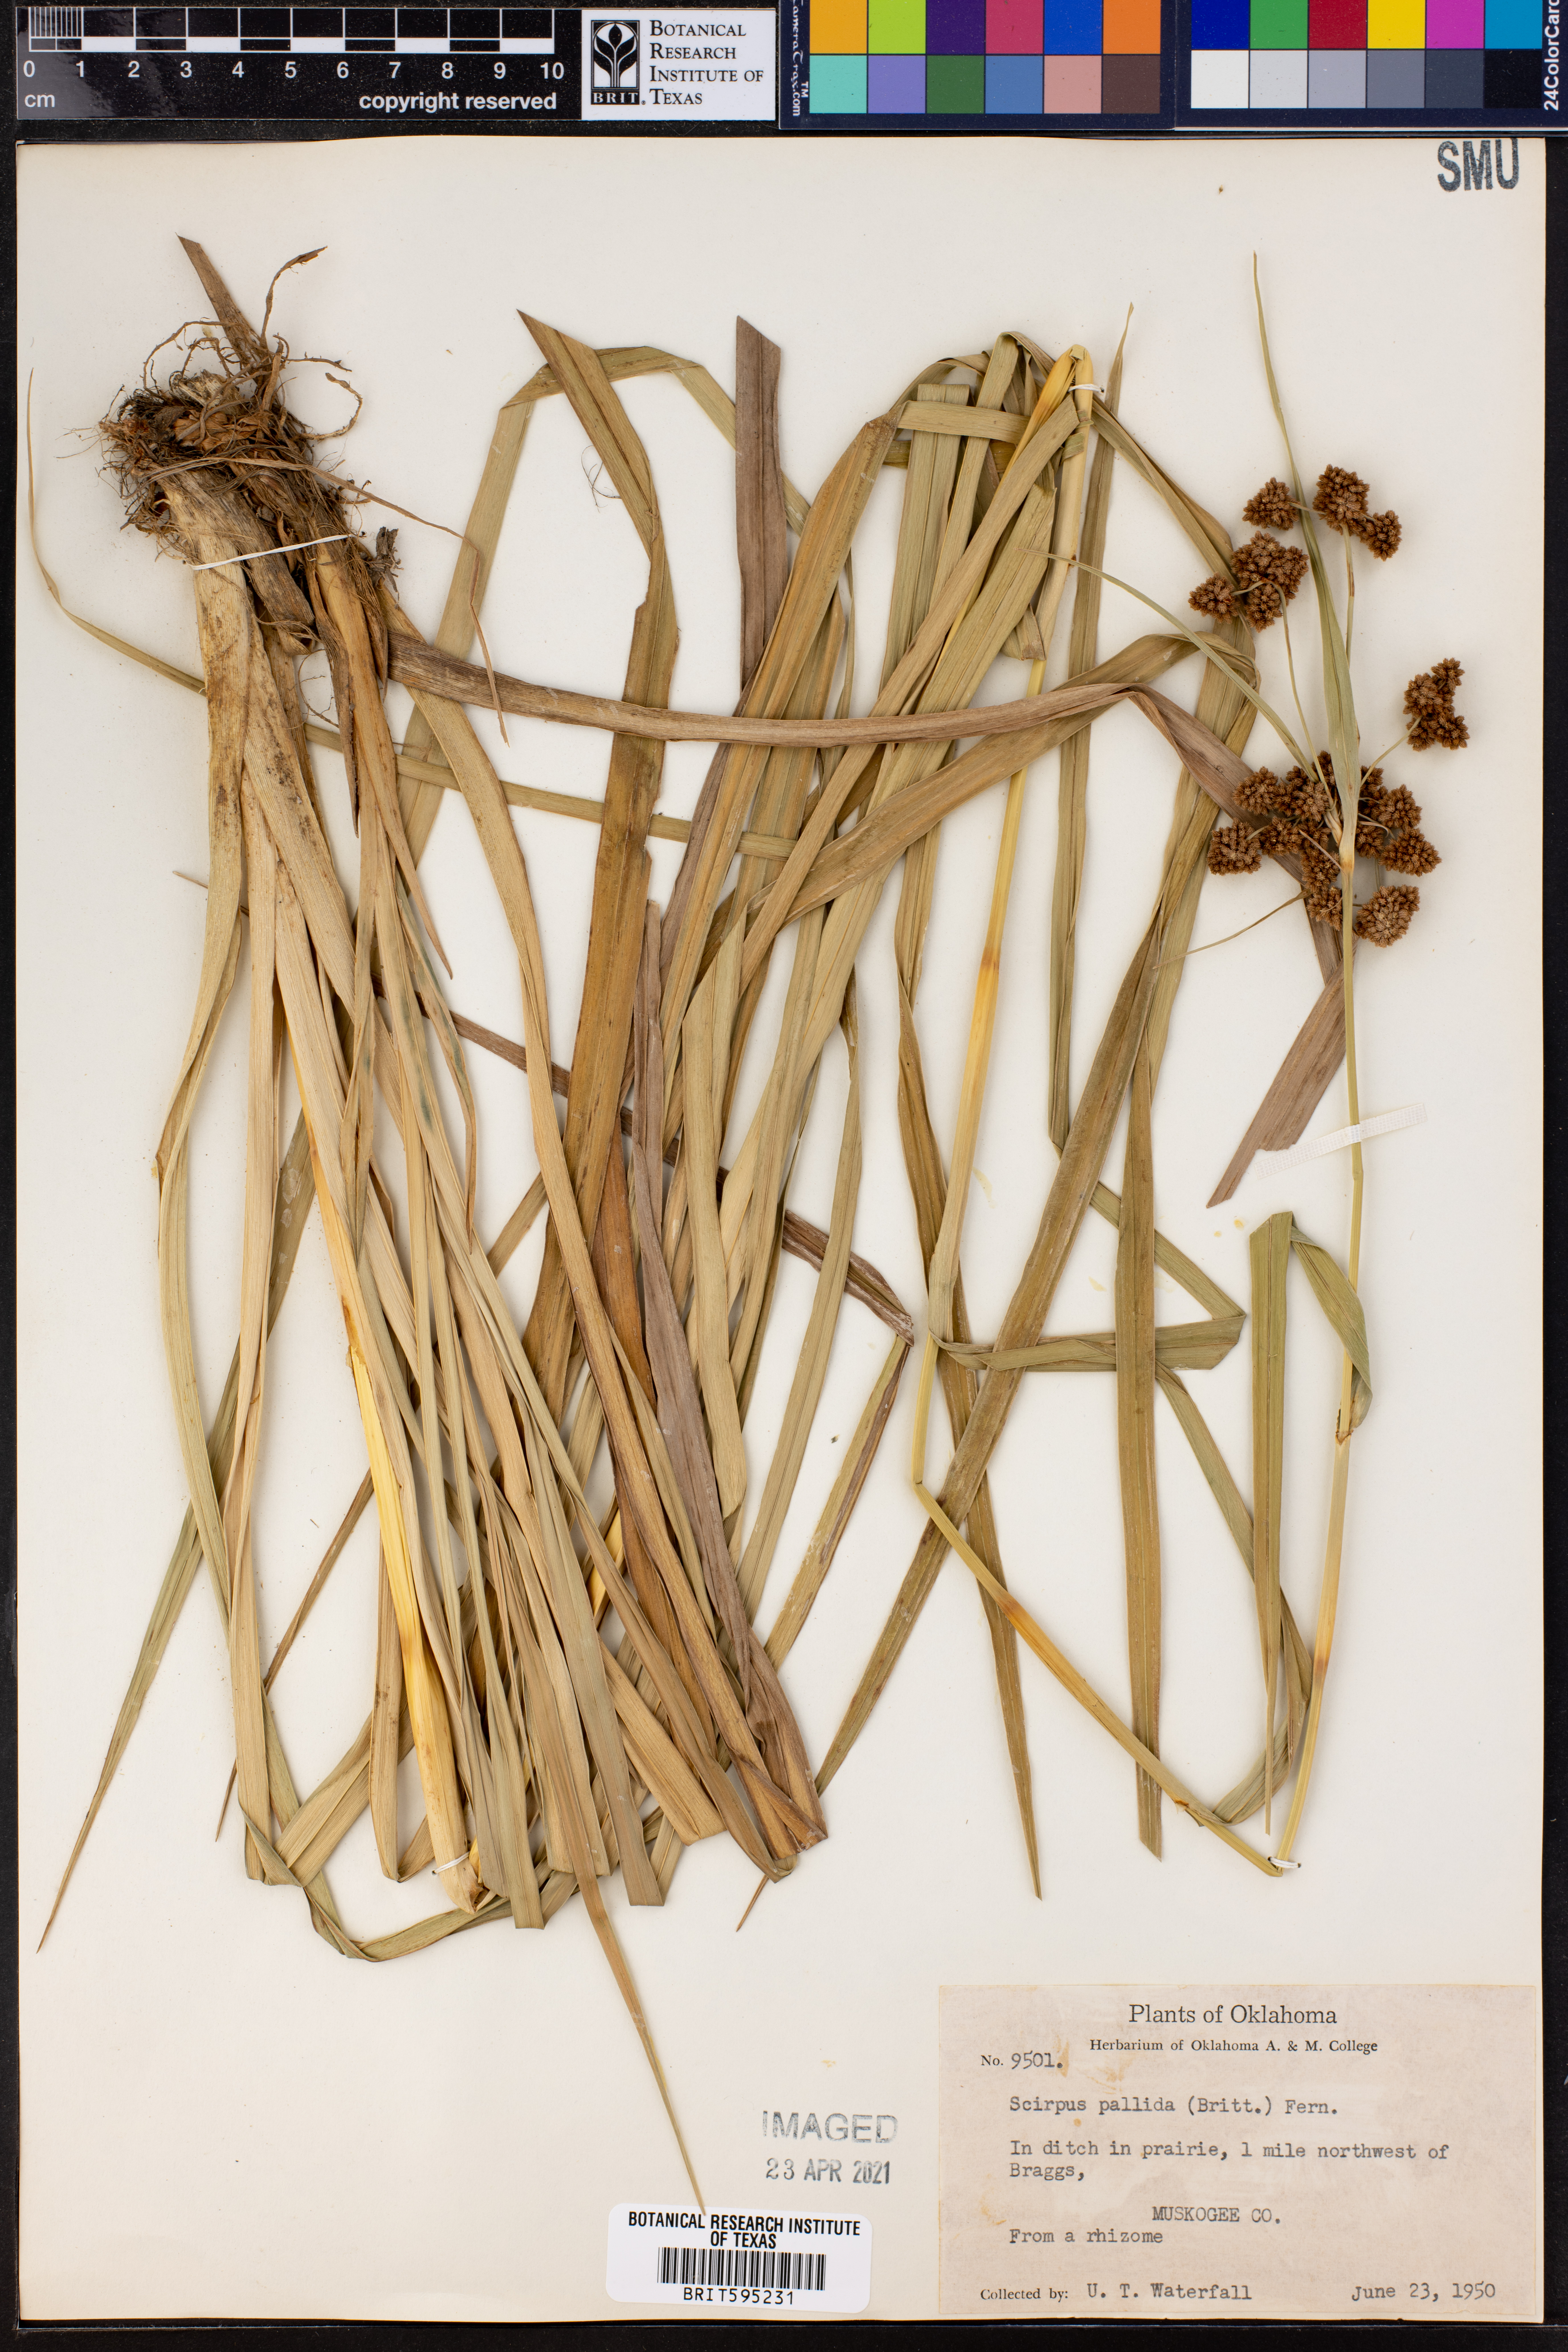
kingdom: Plantae
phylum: Tracheophyta
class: Liliopsida
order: Poales
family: Cyperaceae
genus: Scirpus
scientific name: Scirpus pallidus
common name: Cloaked bulrush
